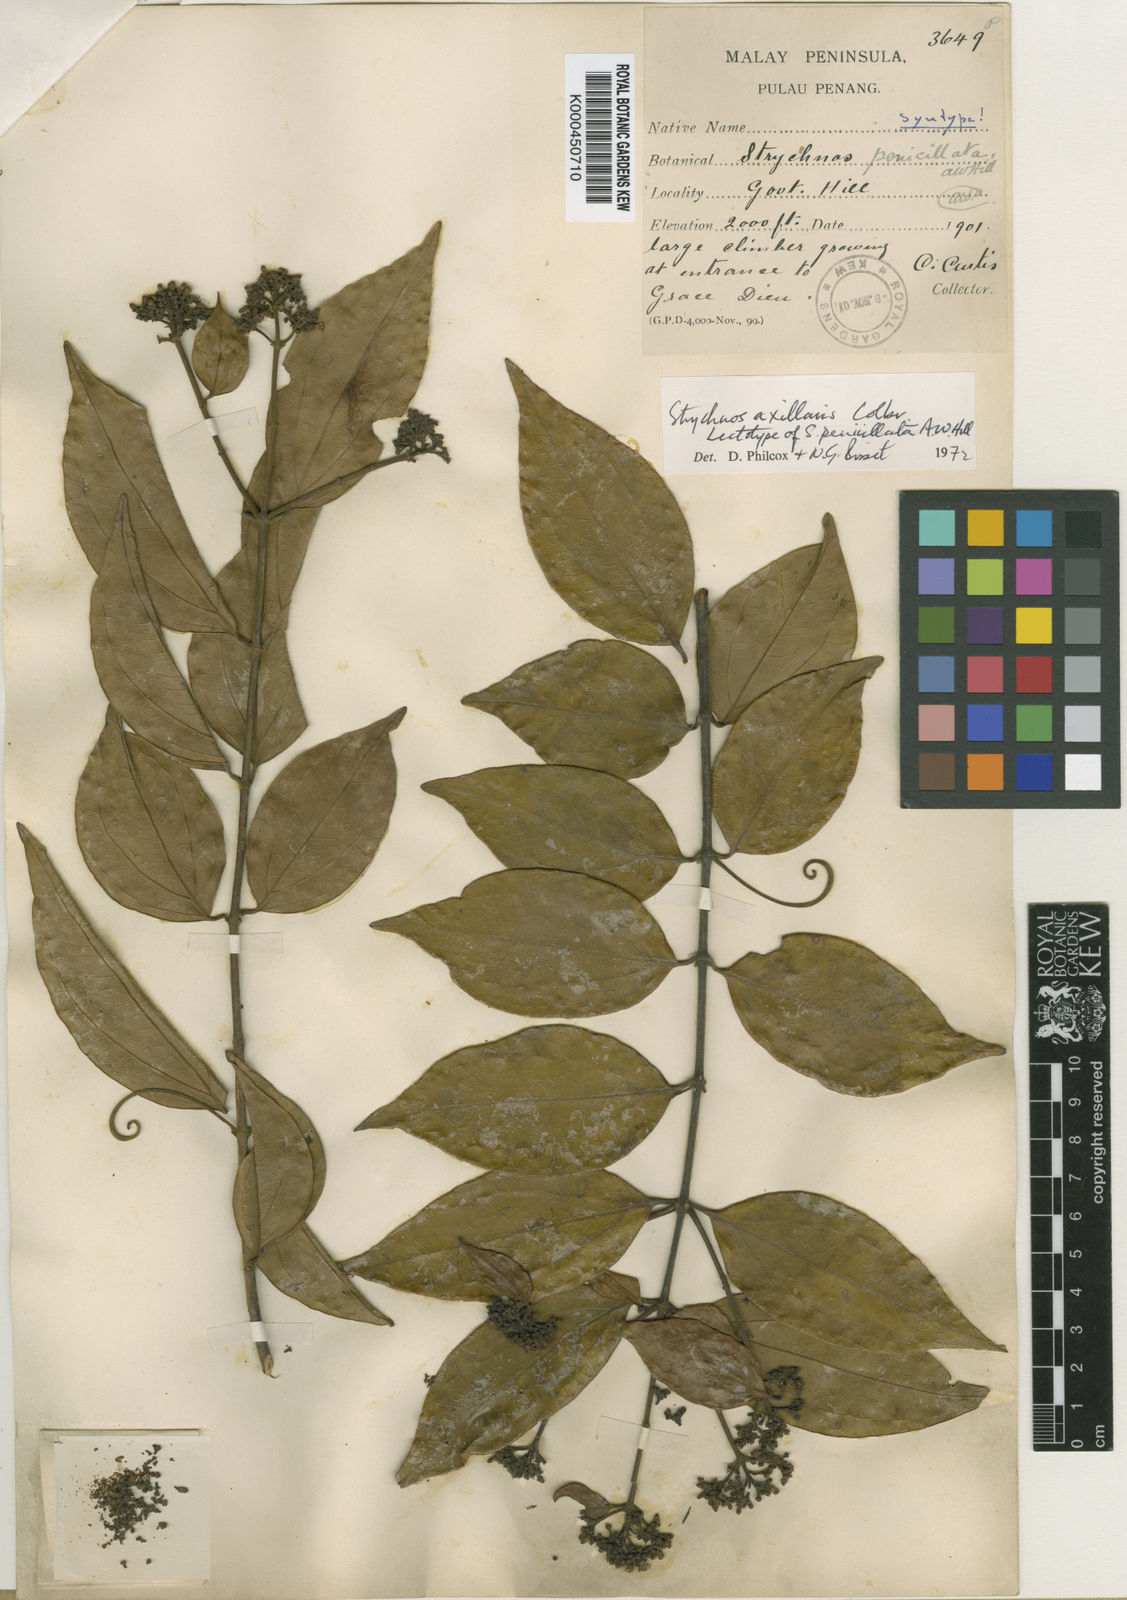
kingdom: Plantae
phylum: Tracheophyta
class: Magnoliopsida
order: Gentianales
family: Loganiaceae
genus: Strychnos
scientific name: Strychnos axillaris
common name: Strychninebush
